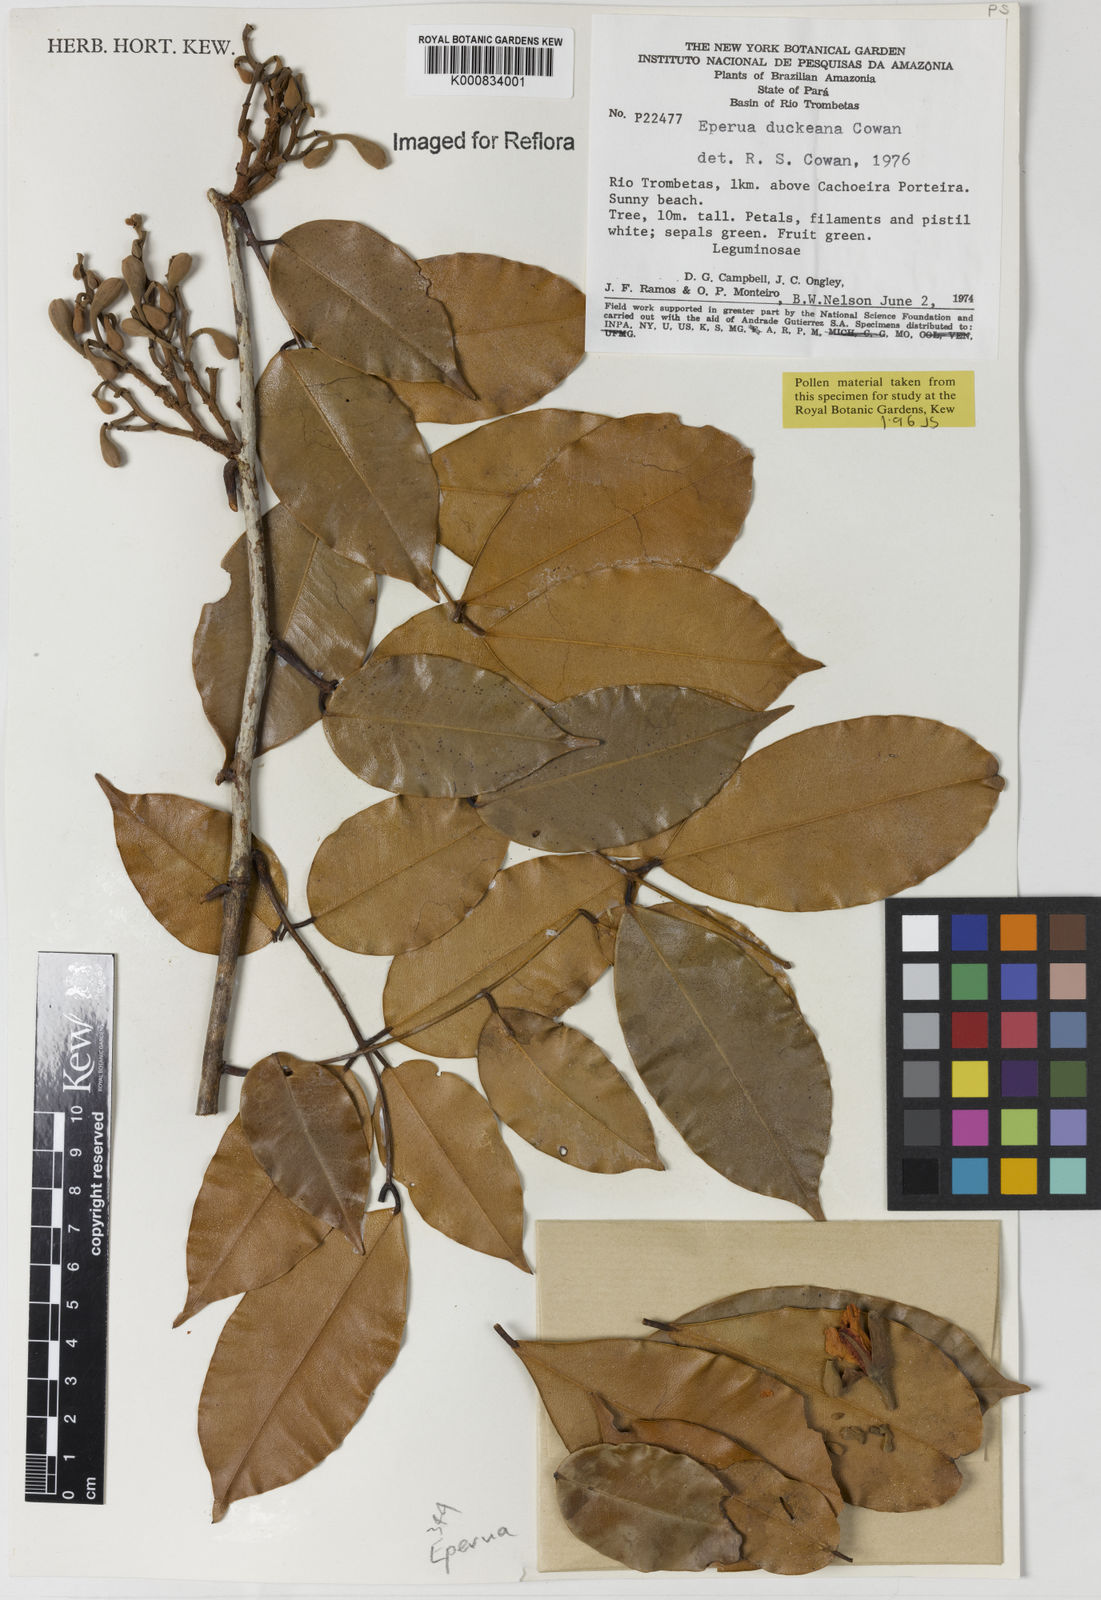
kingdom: Plantae
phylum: Tracheophyta
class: Magnoliopsida
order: Fabales
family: Fabaceae
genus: Eperua
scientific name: Eperua duckeana
